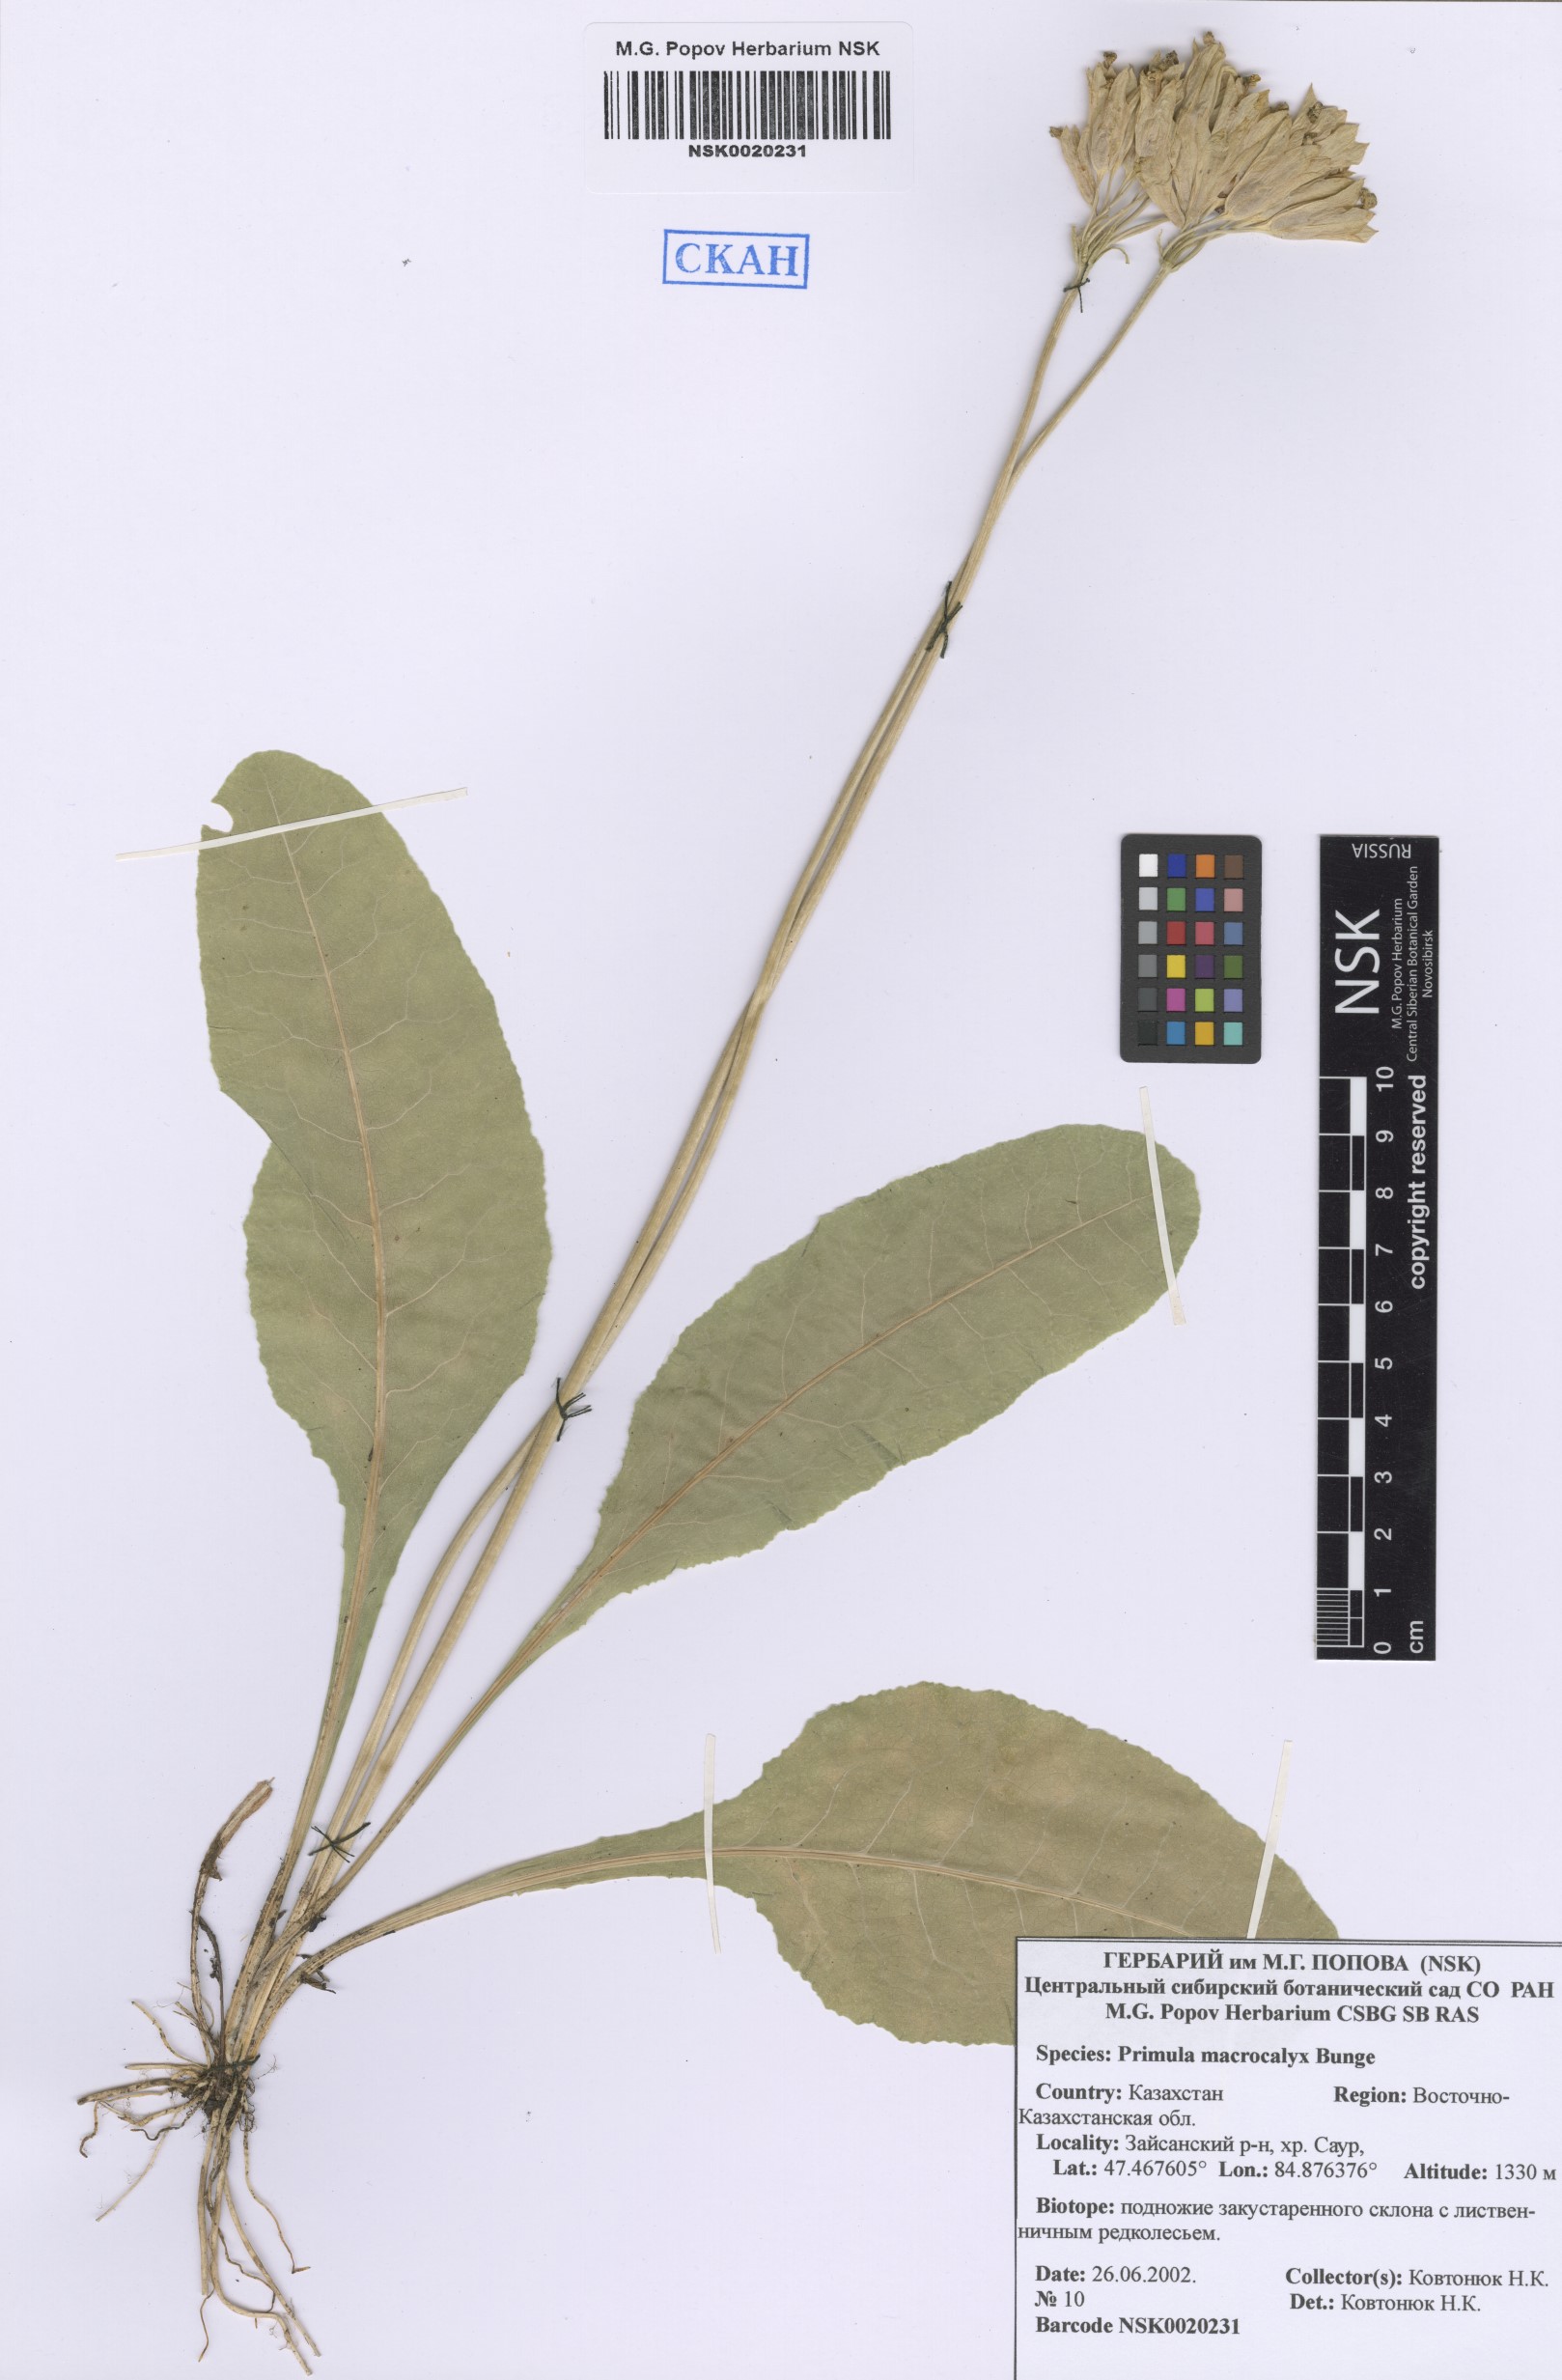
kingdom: Plantae
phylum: Tracheophyta
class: Magnoliopsida
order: Ericales
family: Primulaceae
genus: Primula
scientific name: Primula veris
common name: Cowslip
